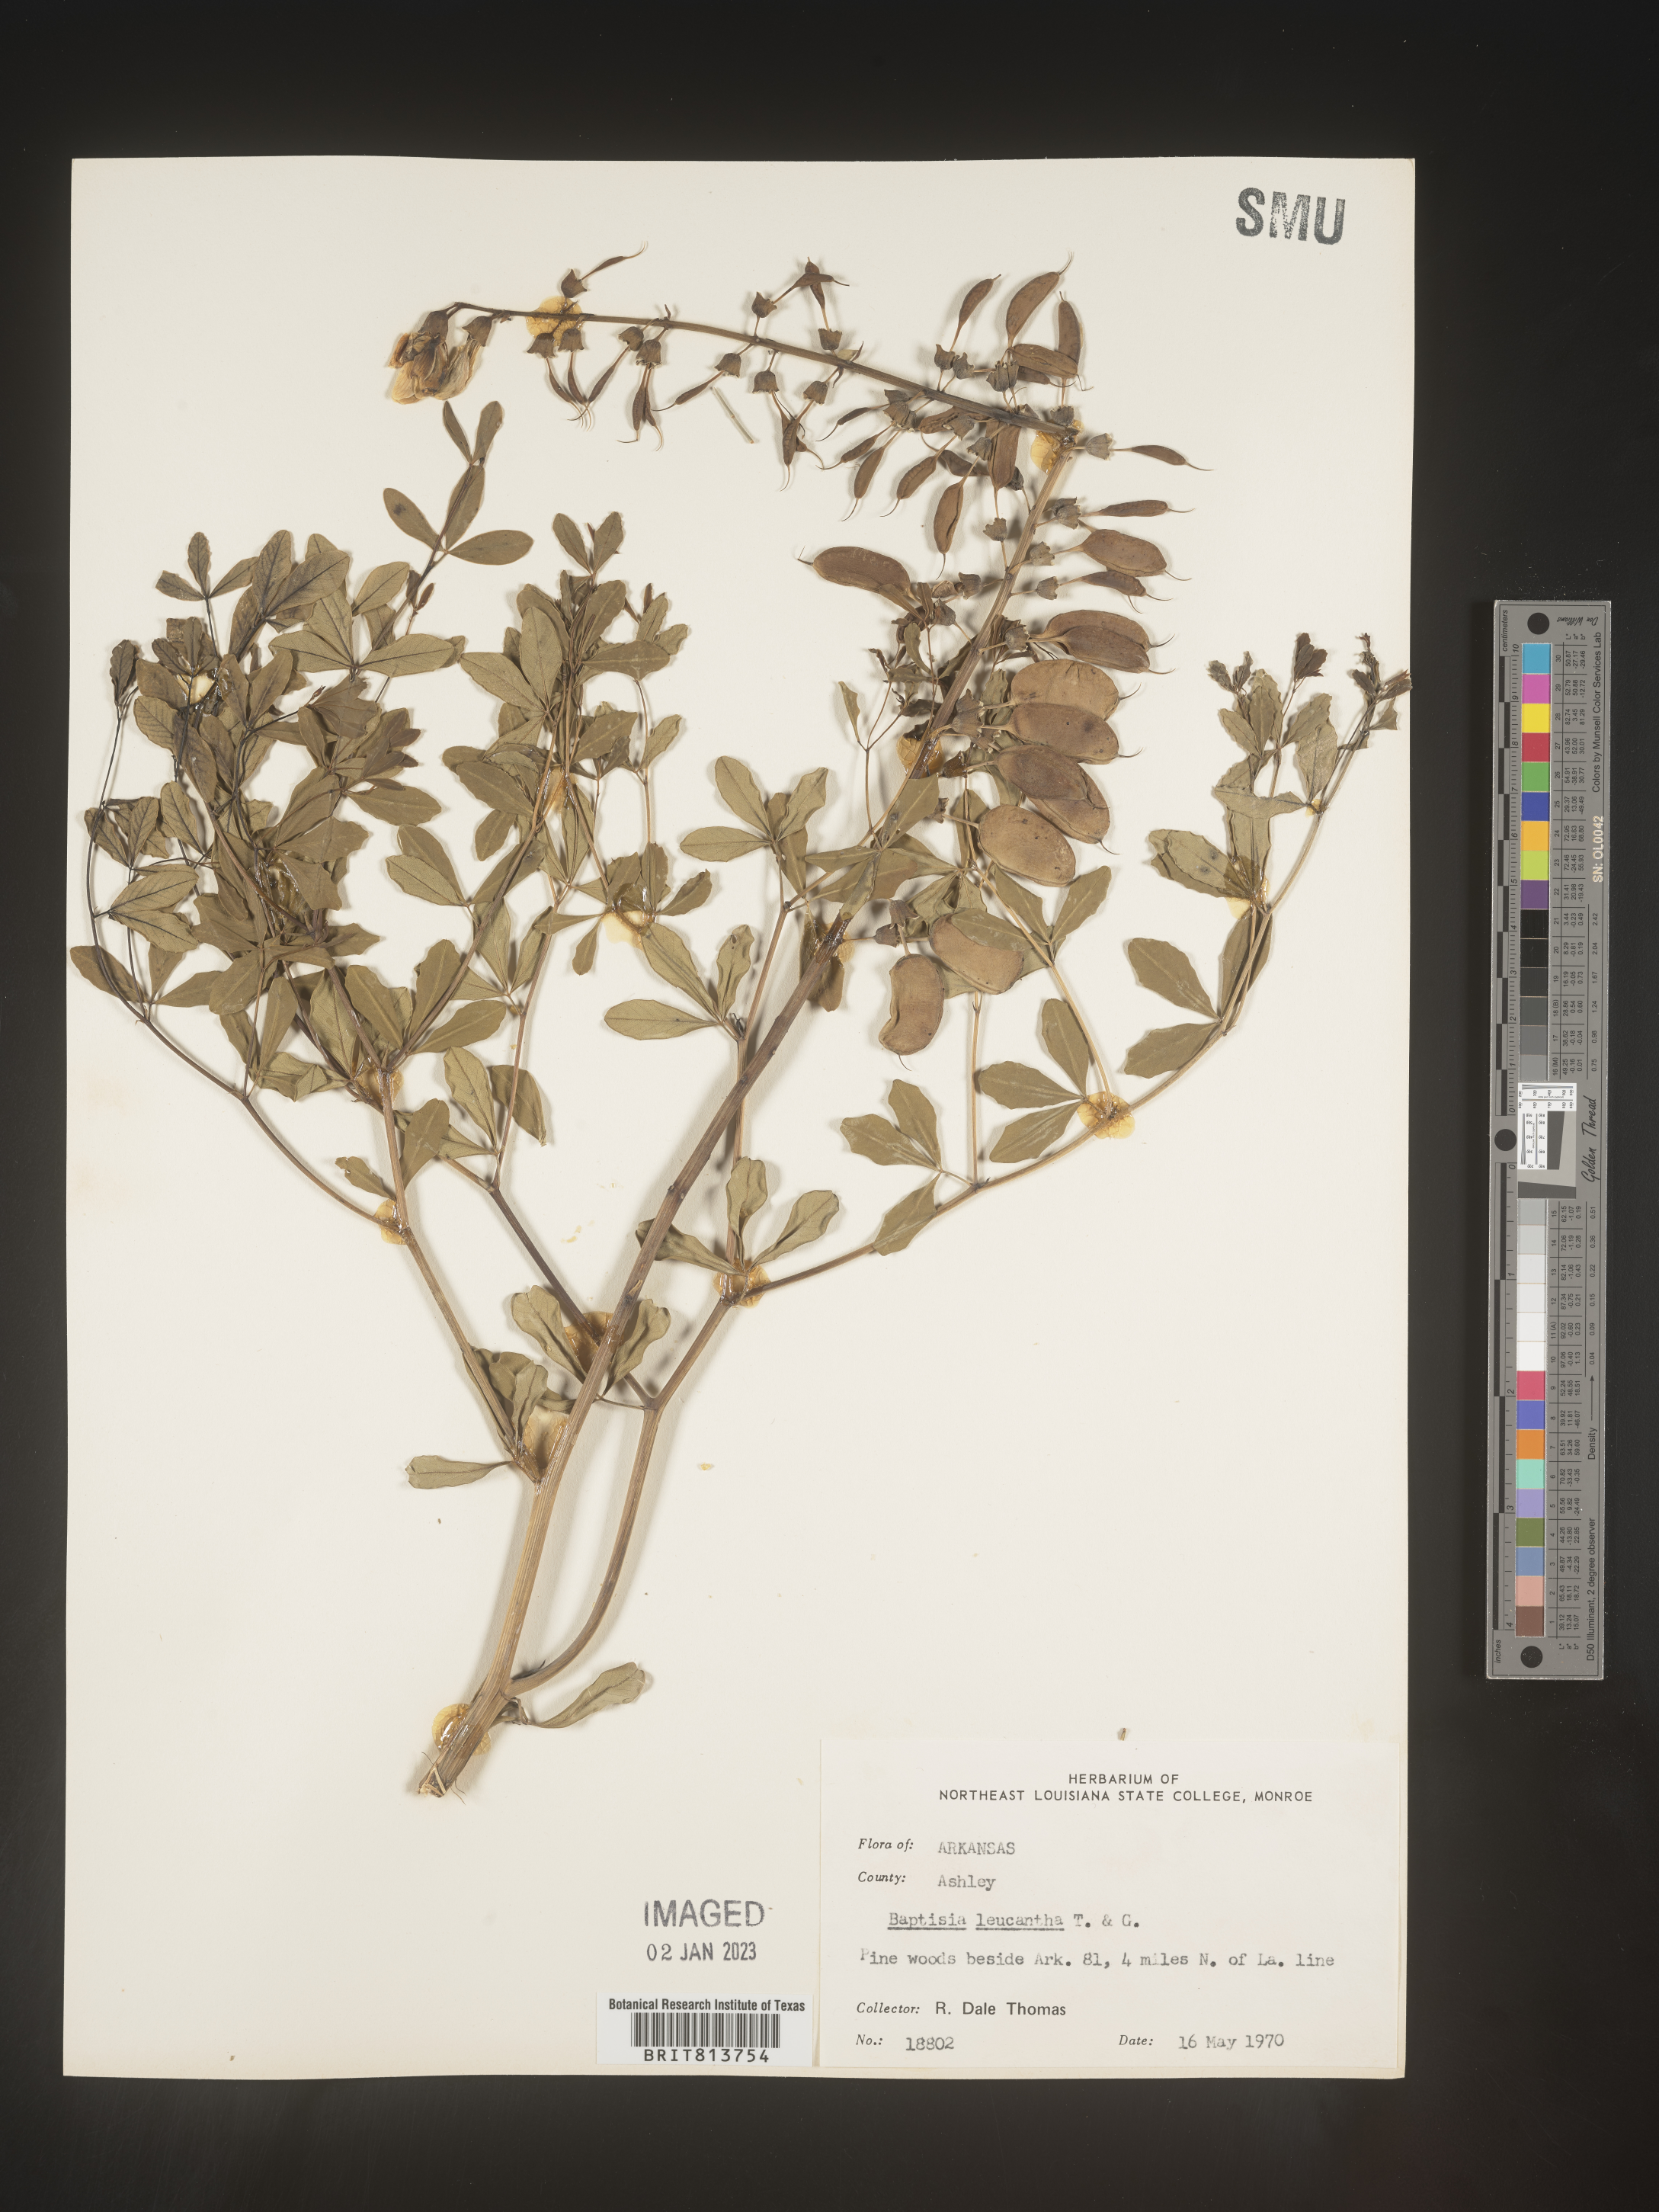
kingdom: Plantae
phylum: Tracheophyta
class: Magnoliopsida
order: Fabales
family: Fabaceae
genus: Baptisia
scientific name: Baptisia alba
